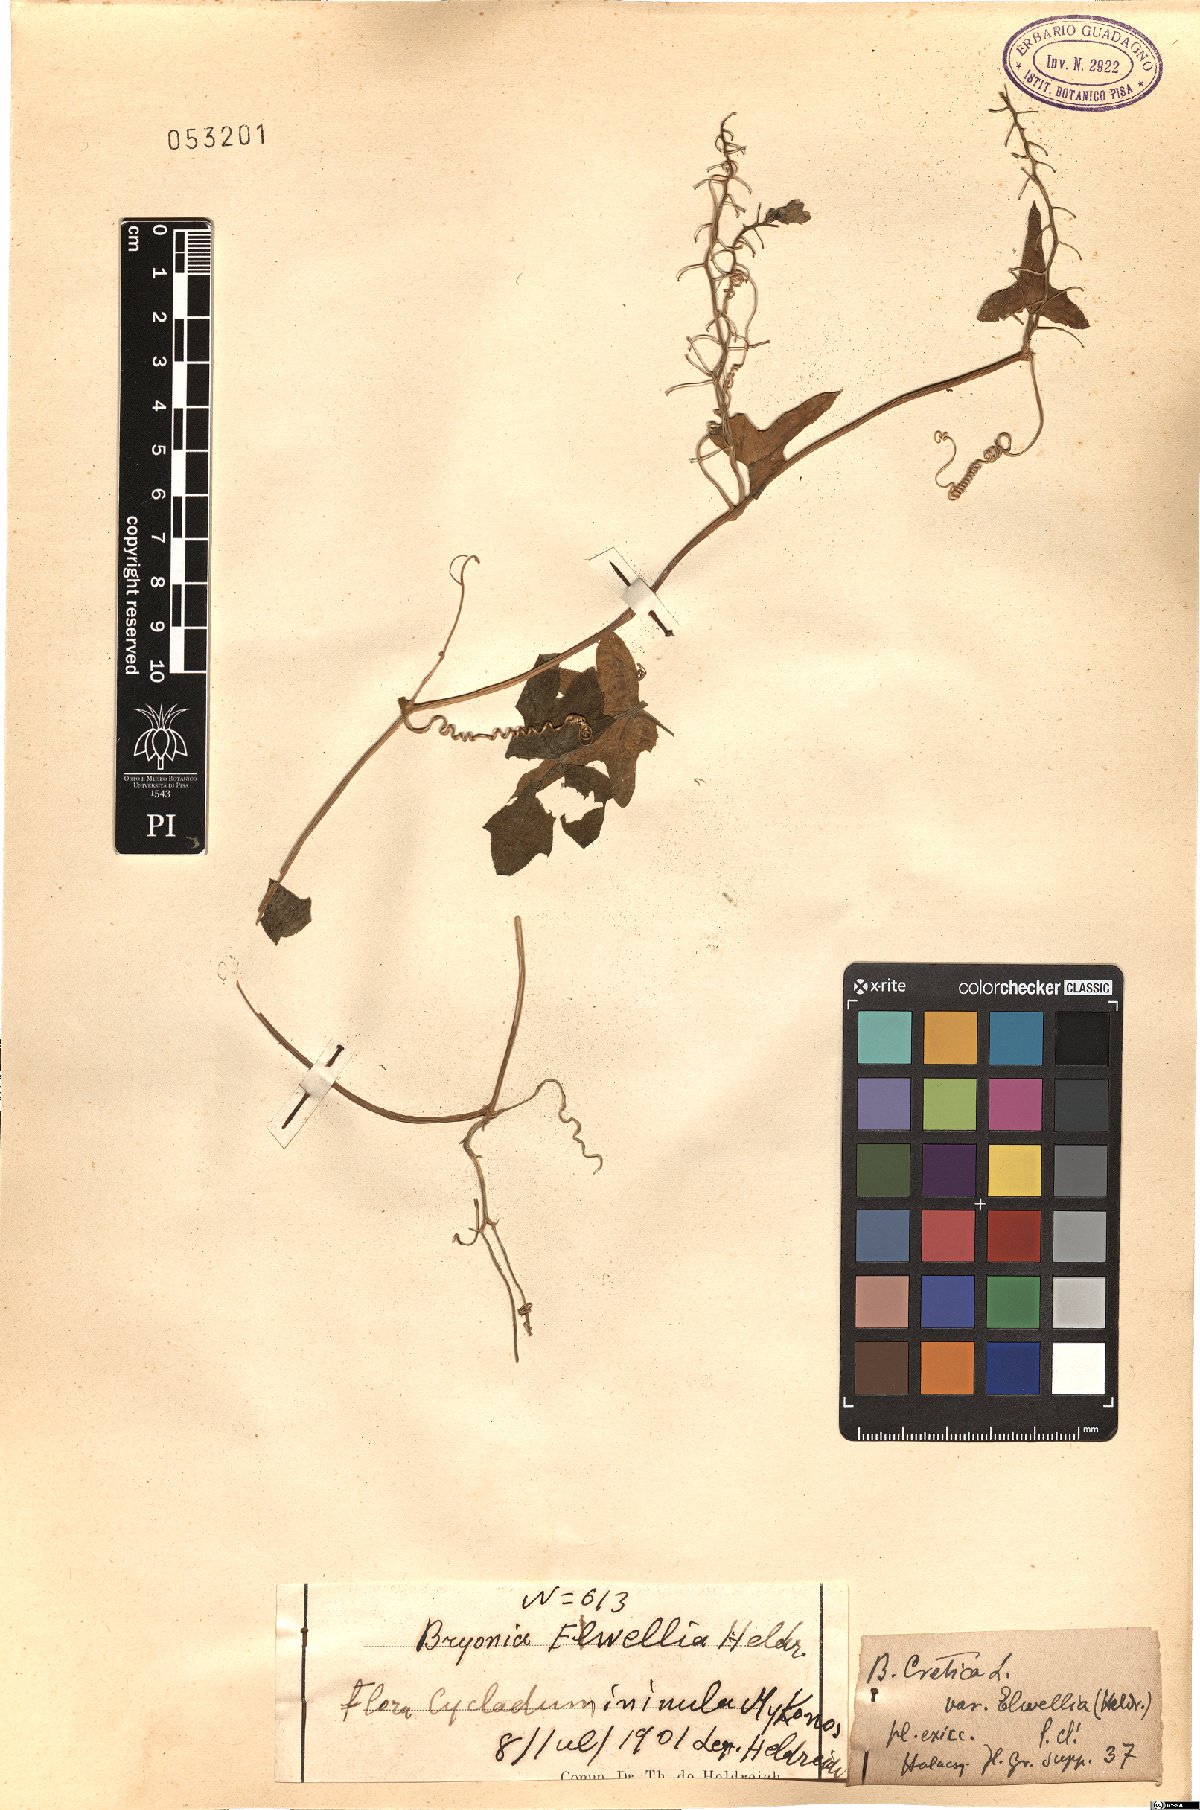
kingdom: Plantae
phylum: Tracheophyta
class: Magnoliopsida
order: Cucurbitales
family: Cucurbitaceae
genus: Bryonia
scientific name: Bryonia cretica
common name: Cretan bryony
